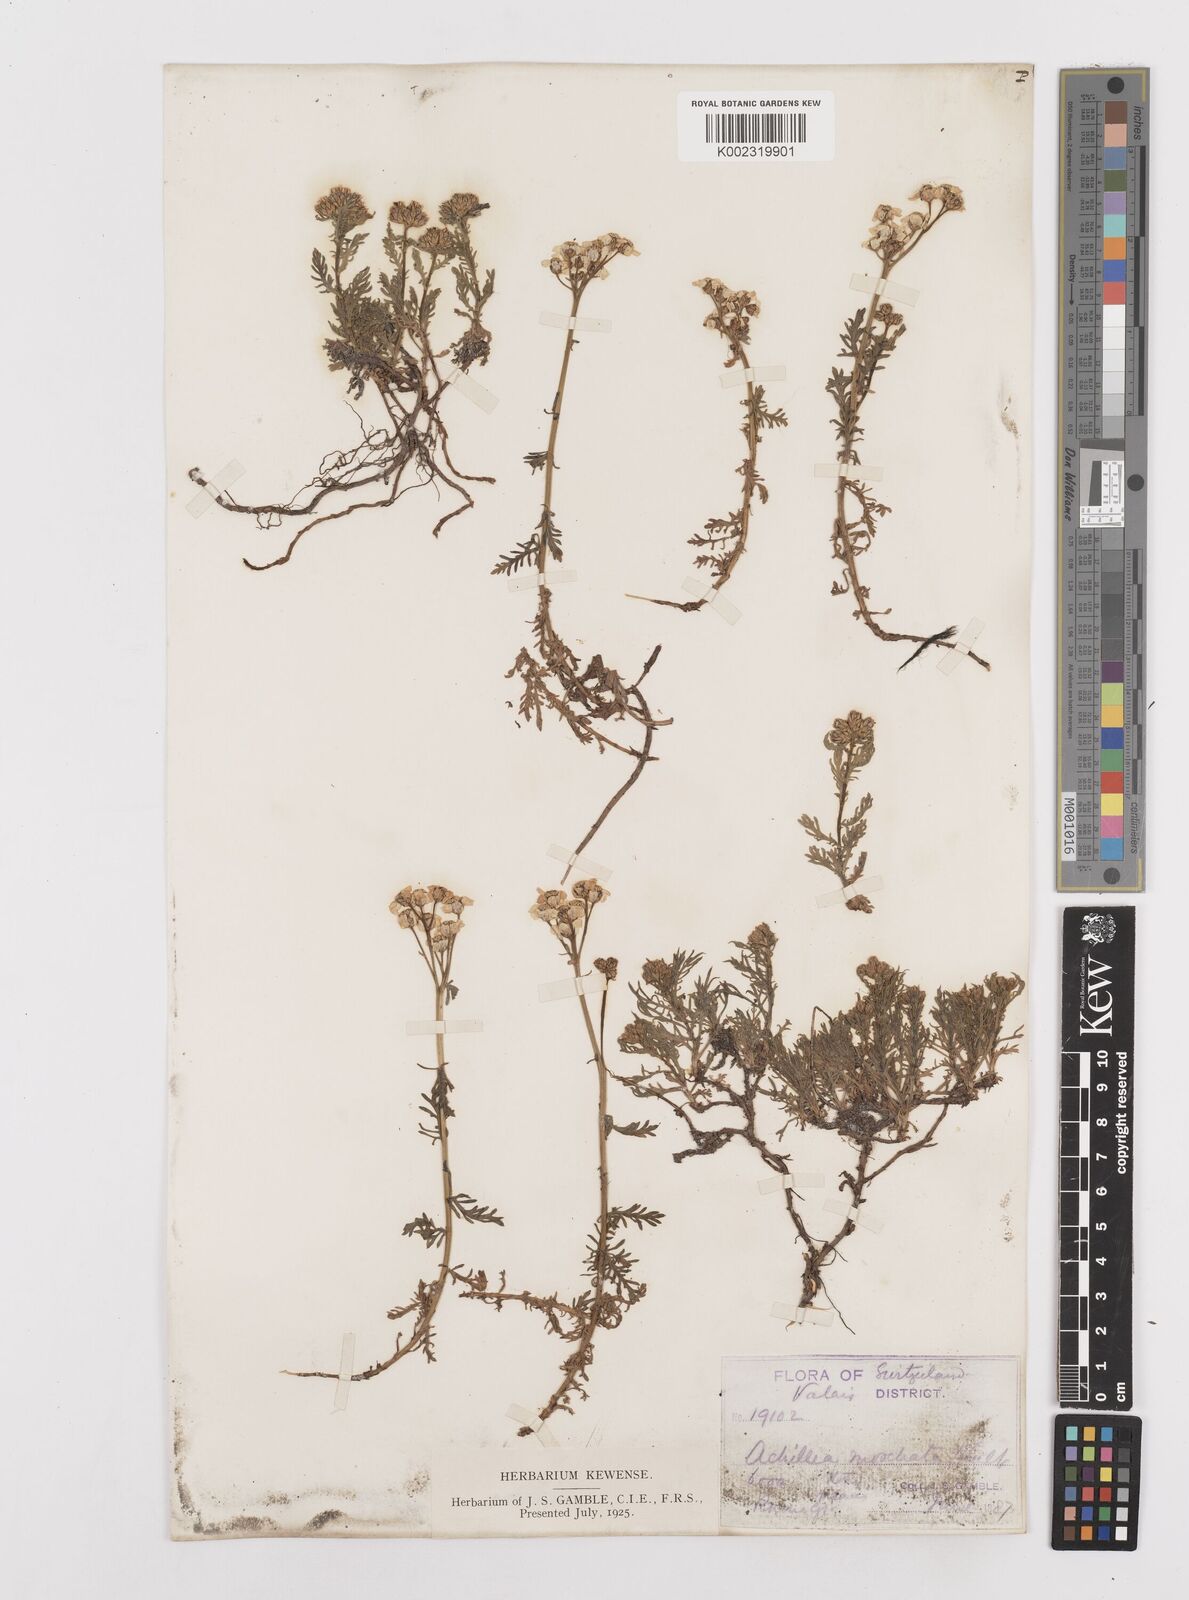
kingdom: Plantae
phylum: Tracheophyta
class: Magnoliopsida
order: Asterales
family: Asteraceae
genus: Achillea
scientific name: Achillea erba-rotta
